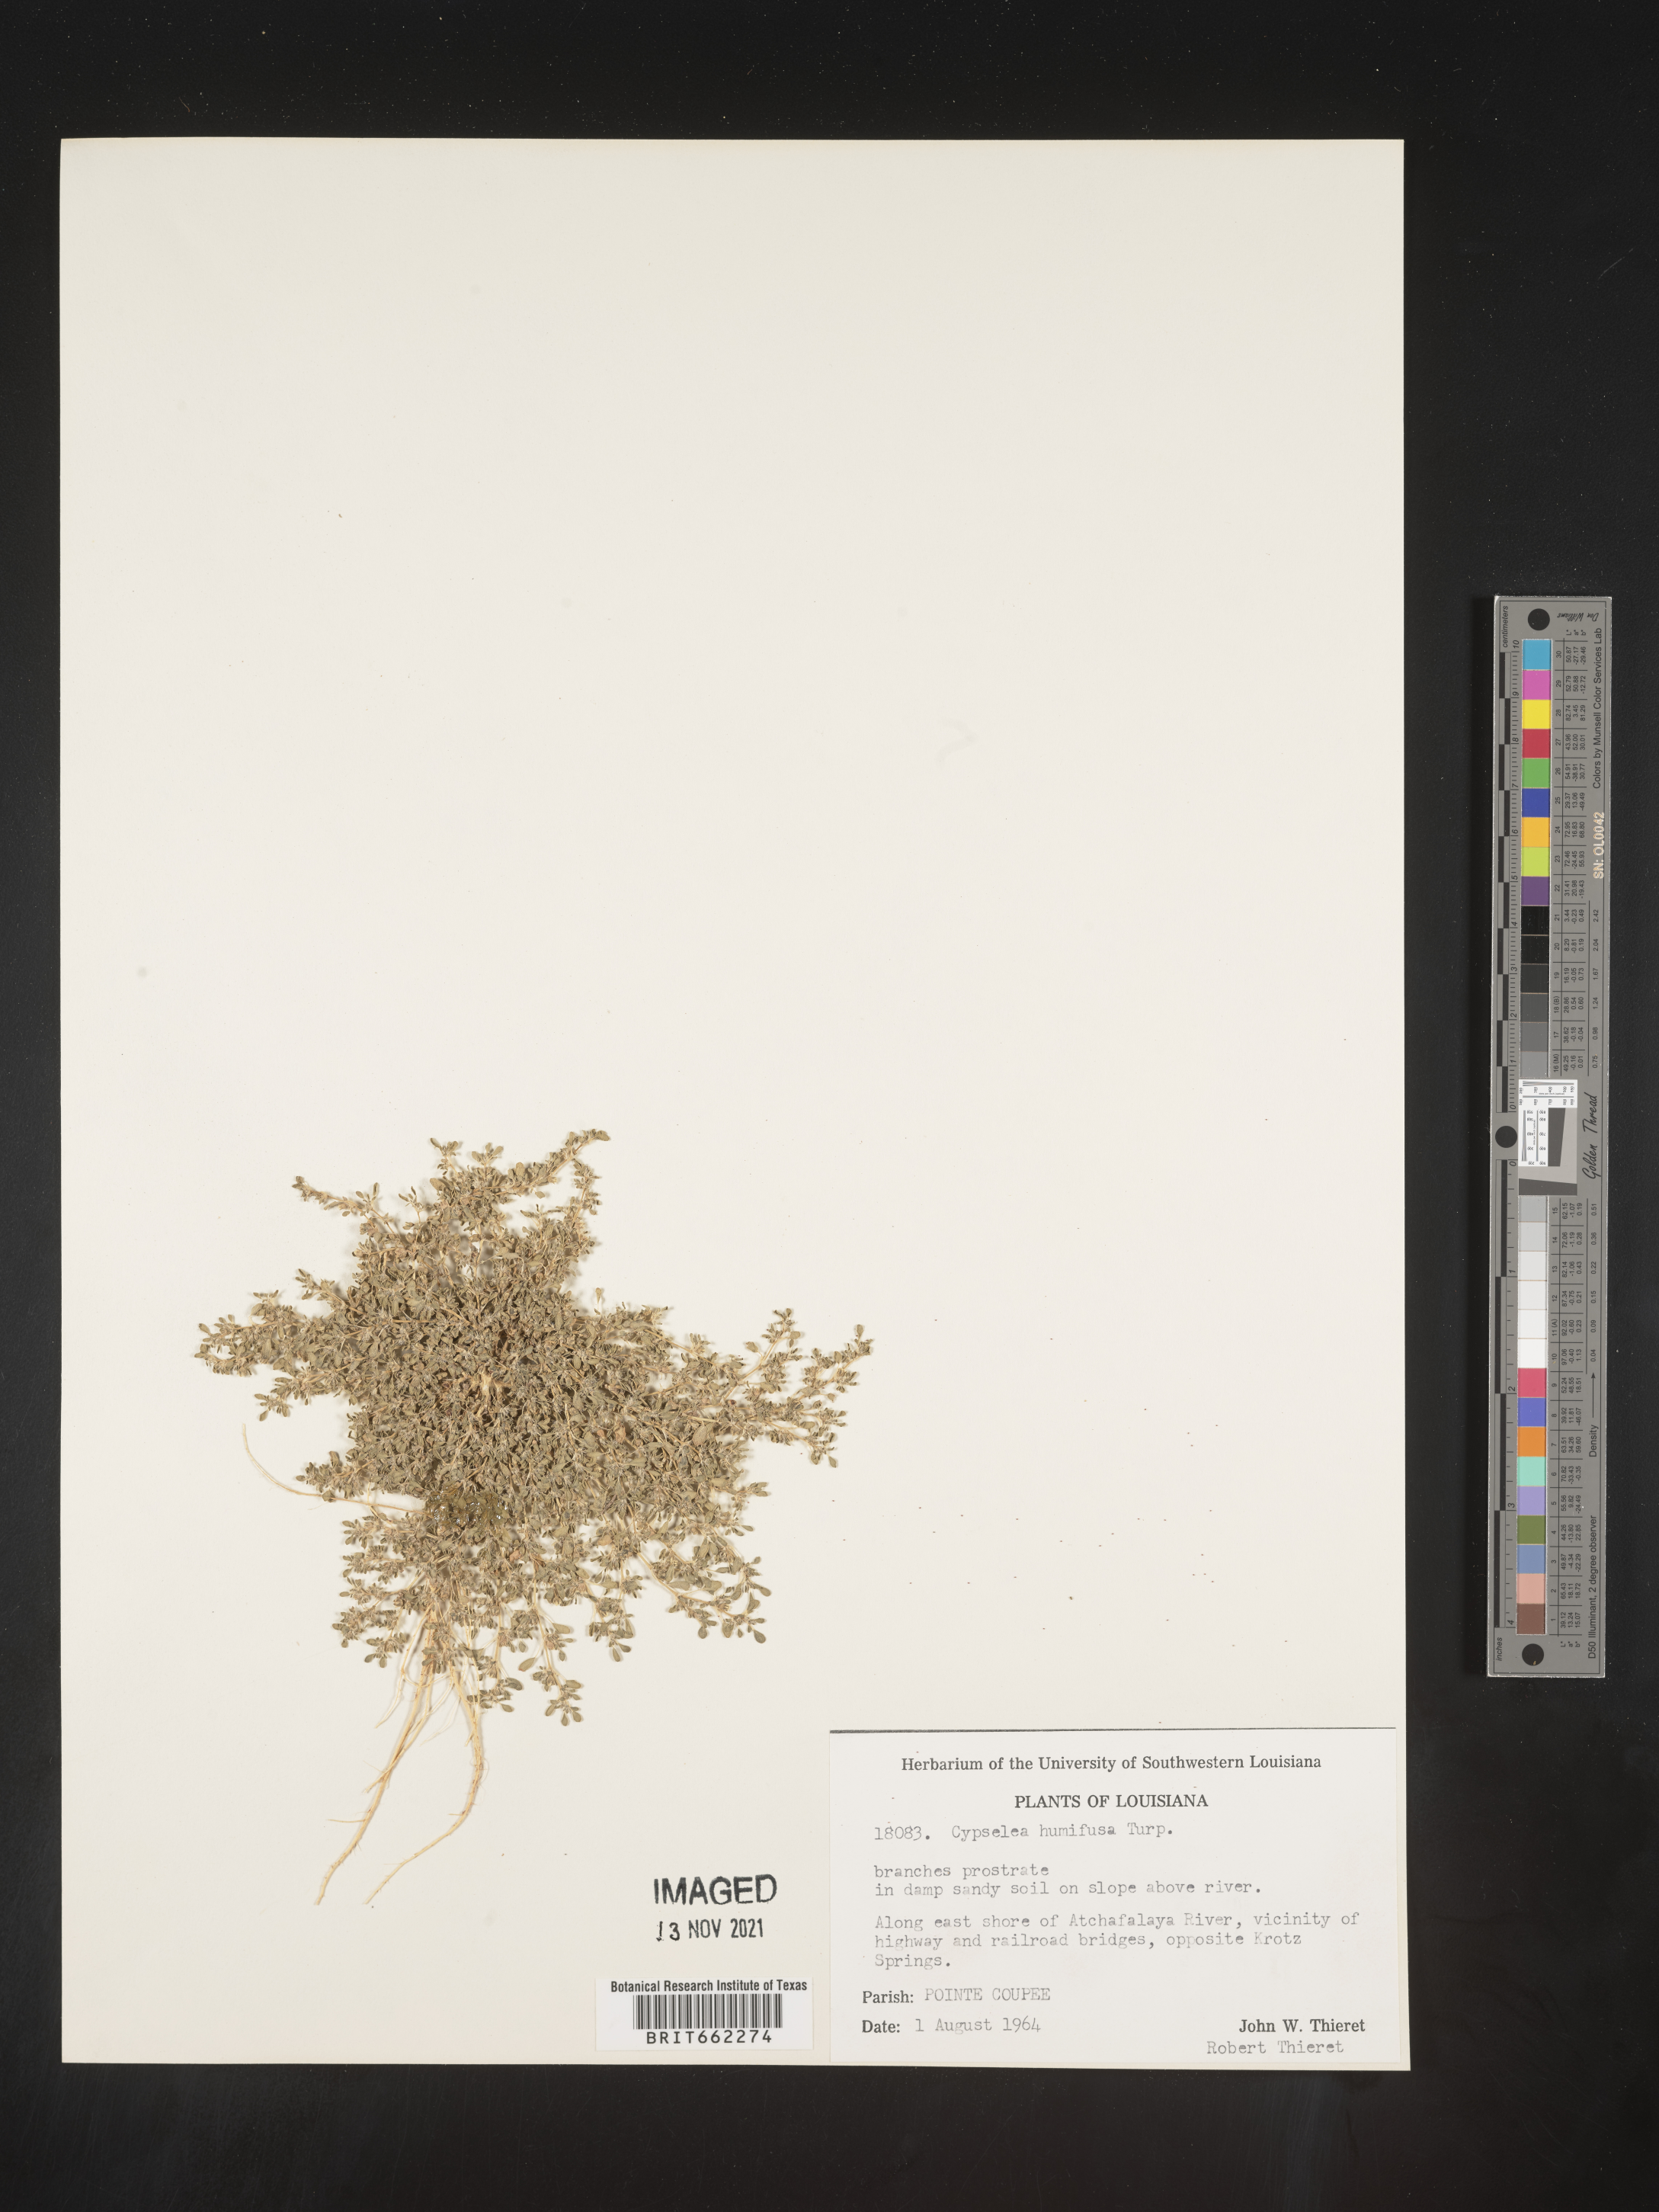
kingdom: Plantae
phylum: Tracheophyta
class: Magnoliopsida
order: Caryophyllales
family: Aizoaceae
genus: Sesuvium
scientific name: Sesuvium
